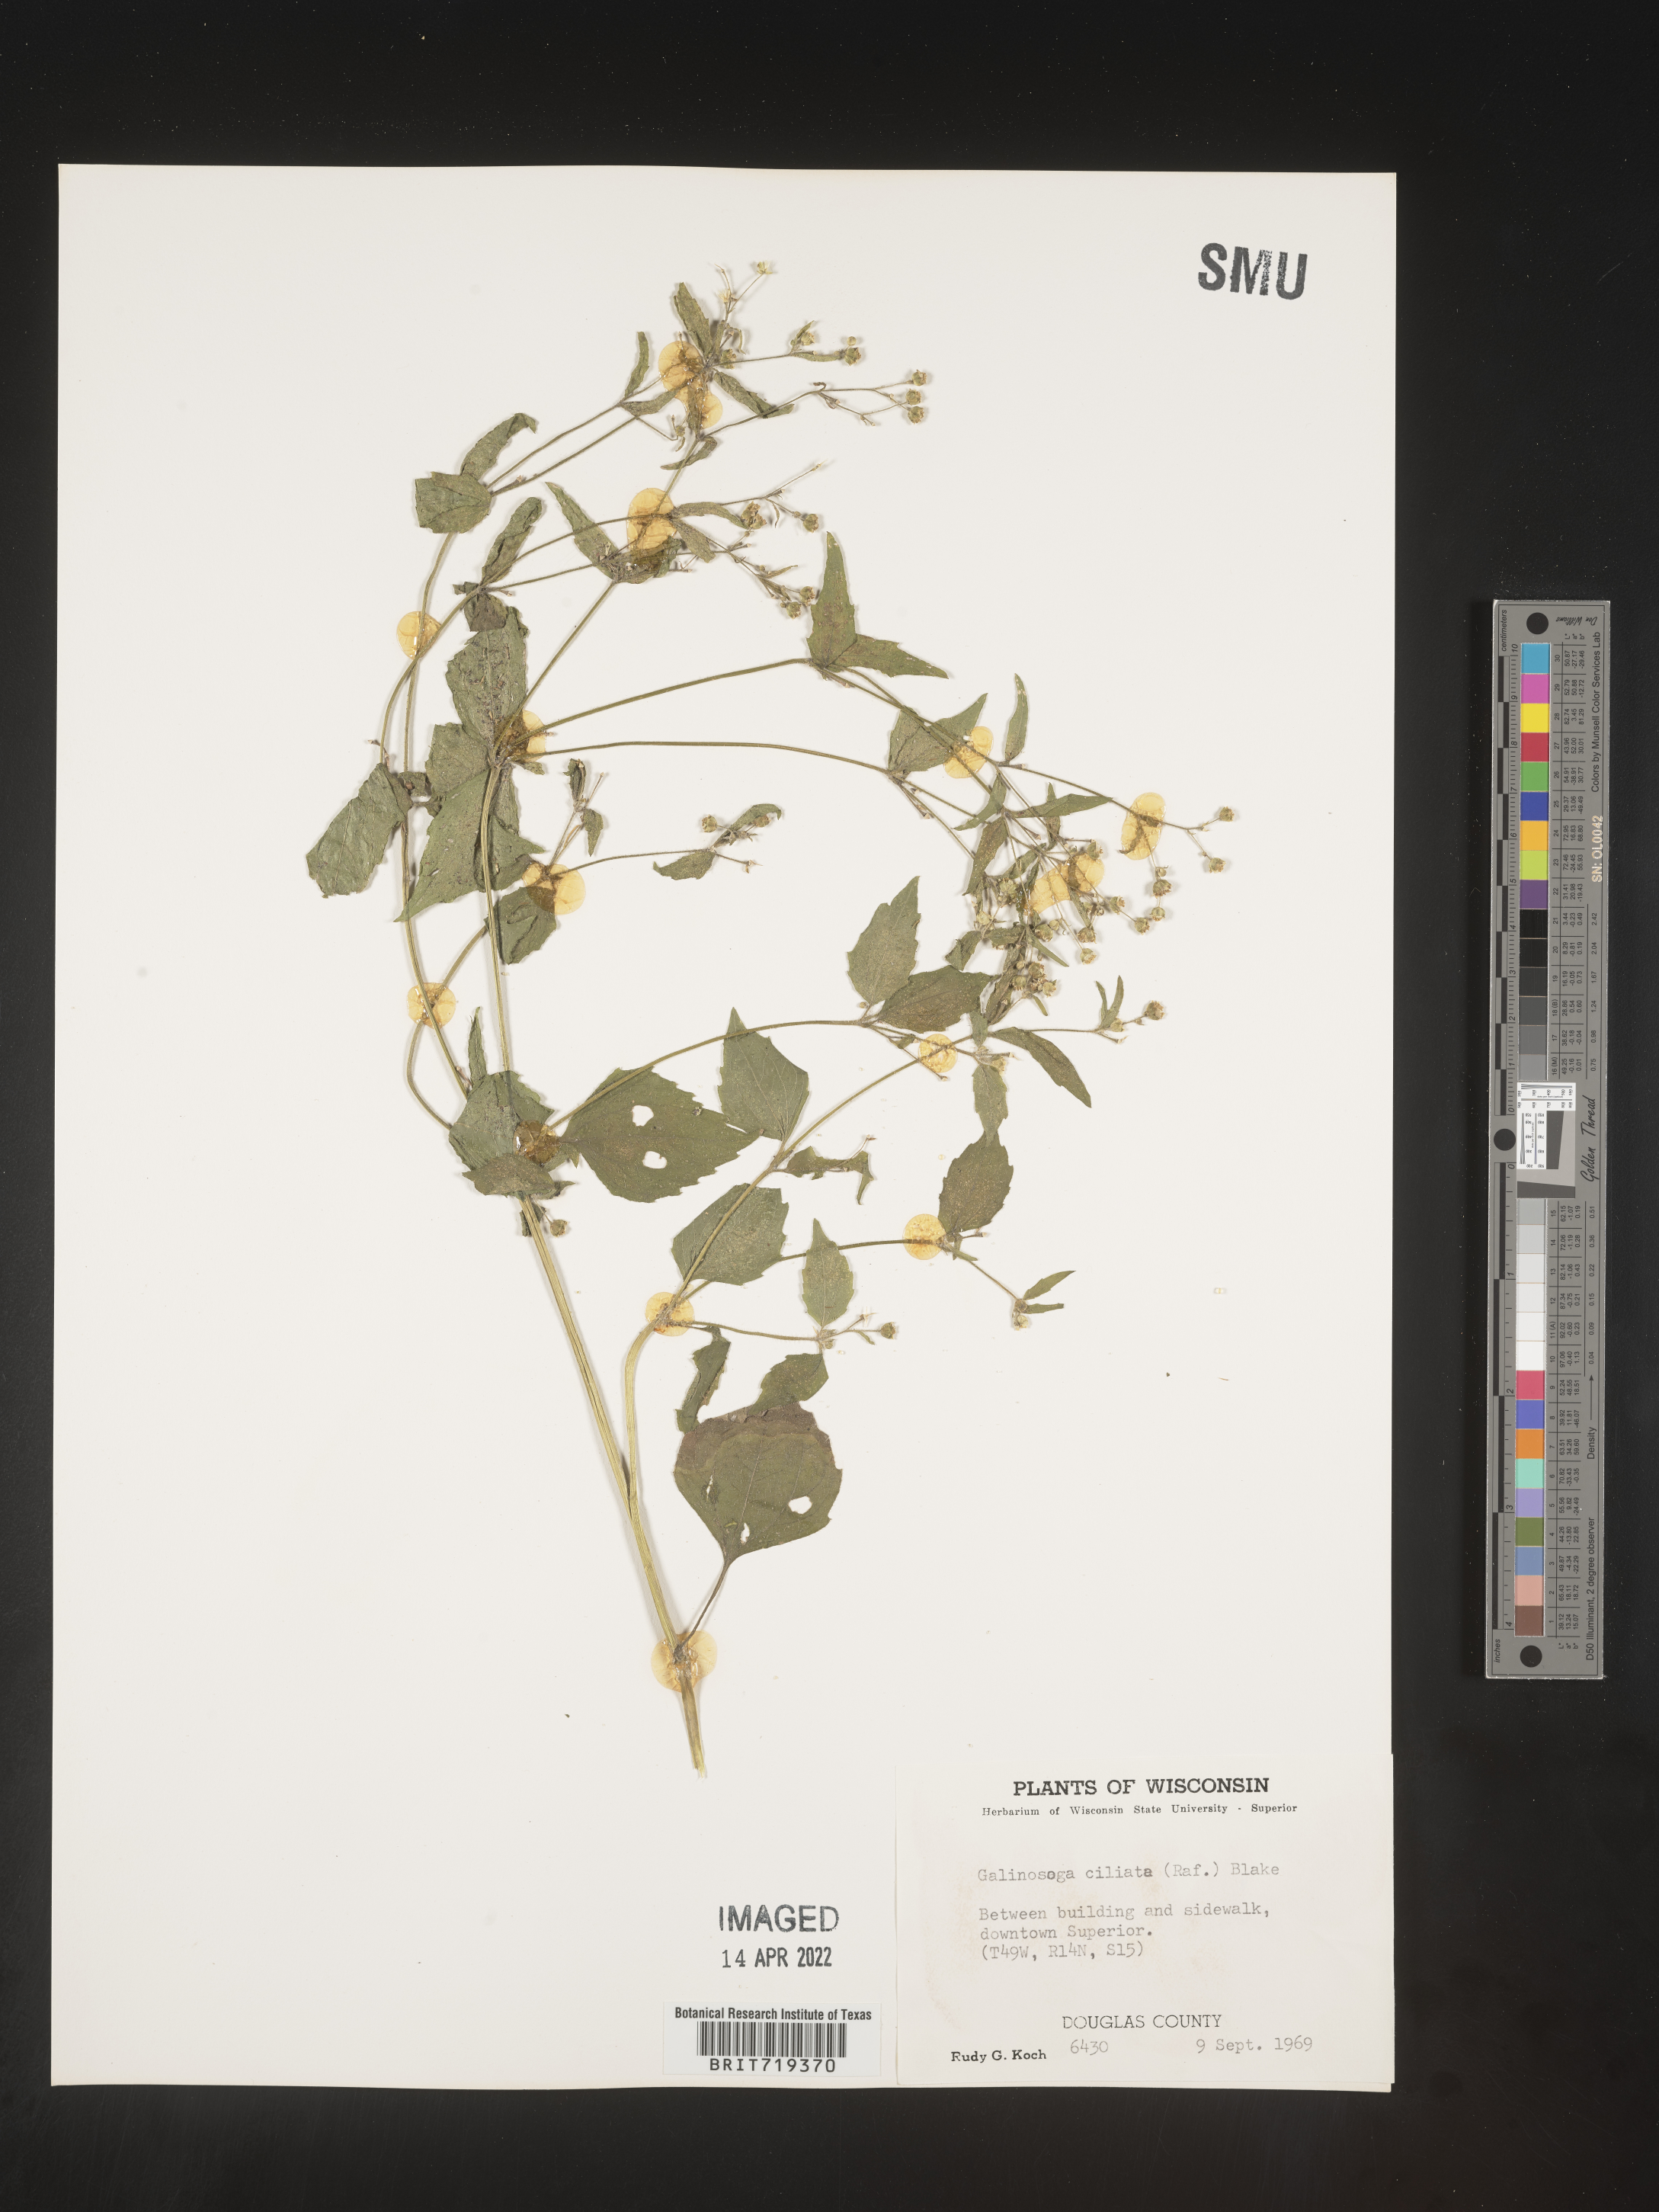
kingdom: Plantae
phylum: Tracheophyta
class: Magnoliopsida
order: Asterales
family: Asteraceae
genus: Galinsoga
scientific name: Galinsoga quadriradiata
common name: Shaggy soldier
